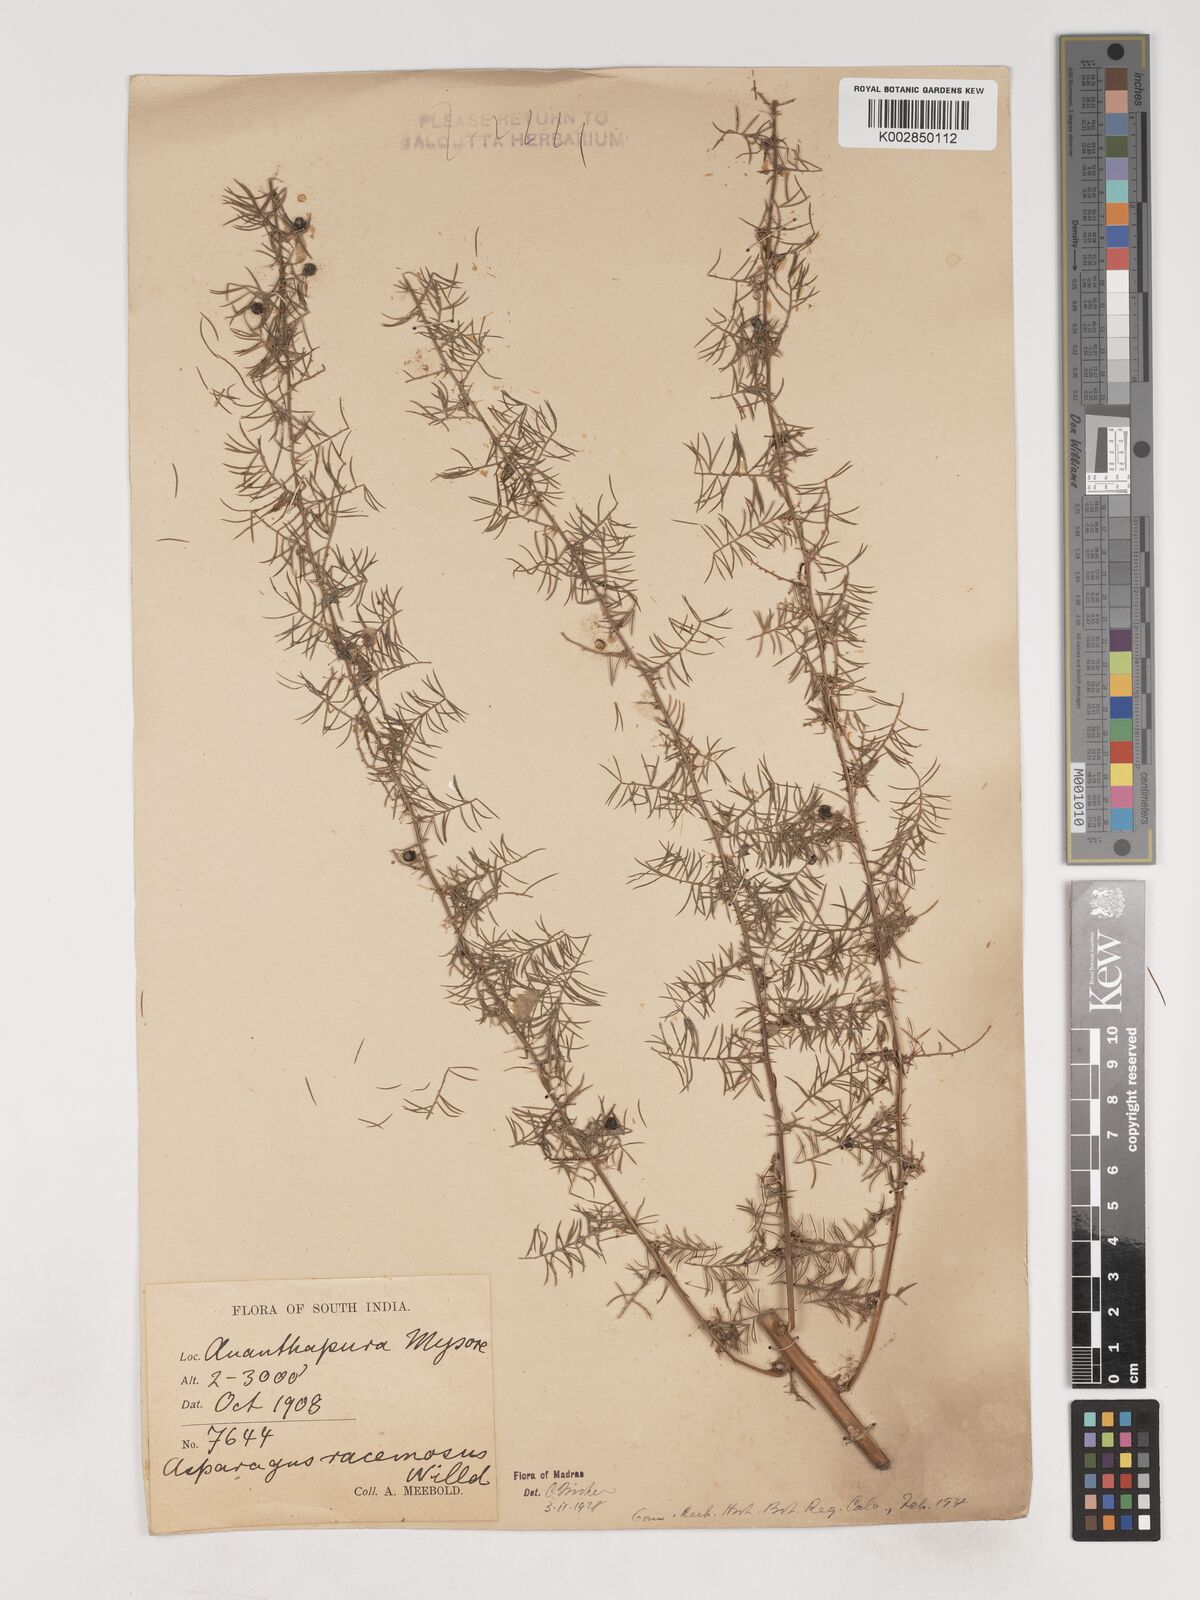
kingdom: Plantae
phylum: Tracheophyta
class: Liliopsida
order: Asparagales
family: Asparagaceae
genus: Asparagus
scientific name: Asparagus racemosus
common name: Asparagus-fern
